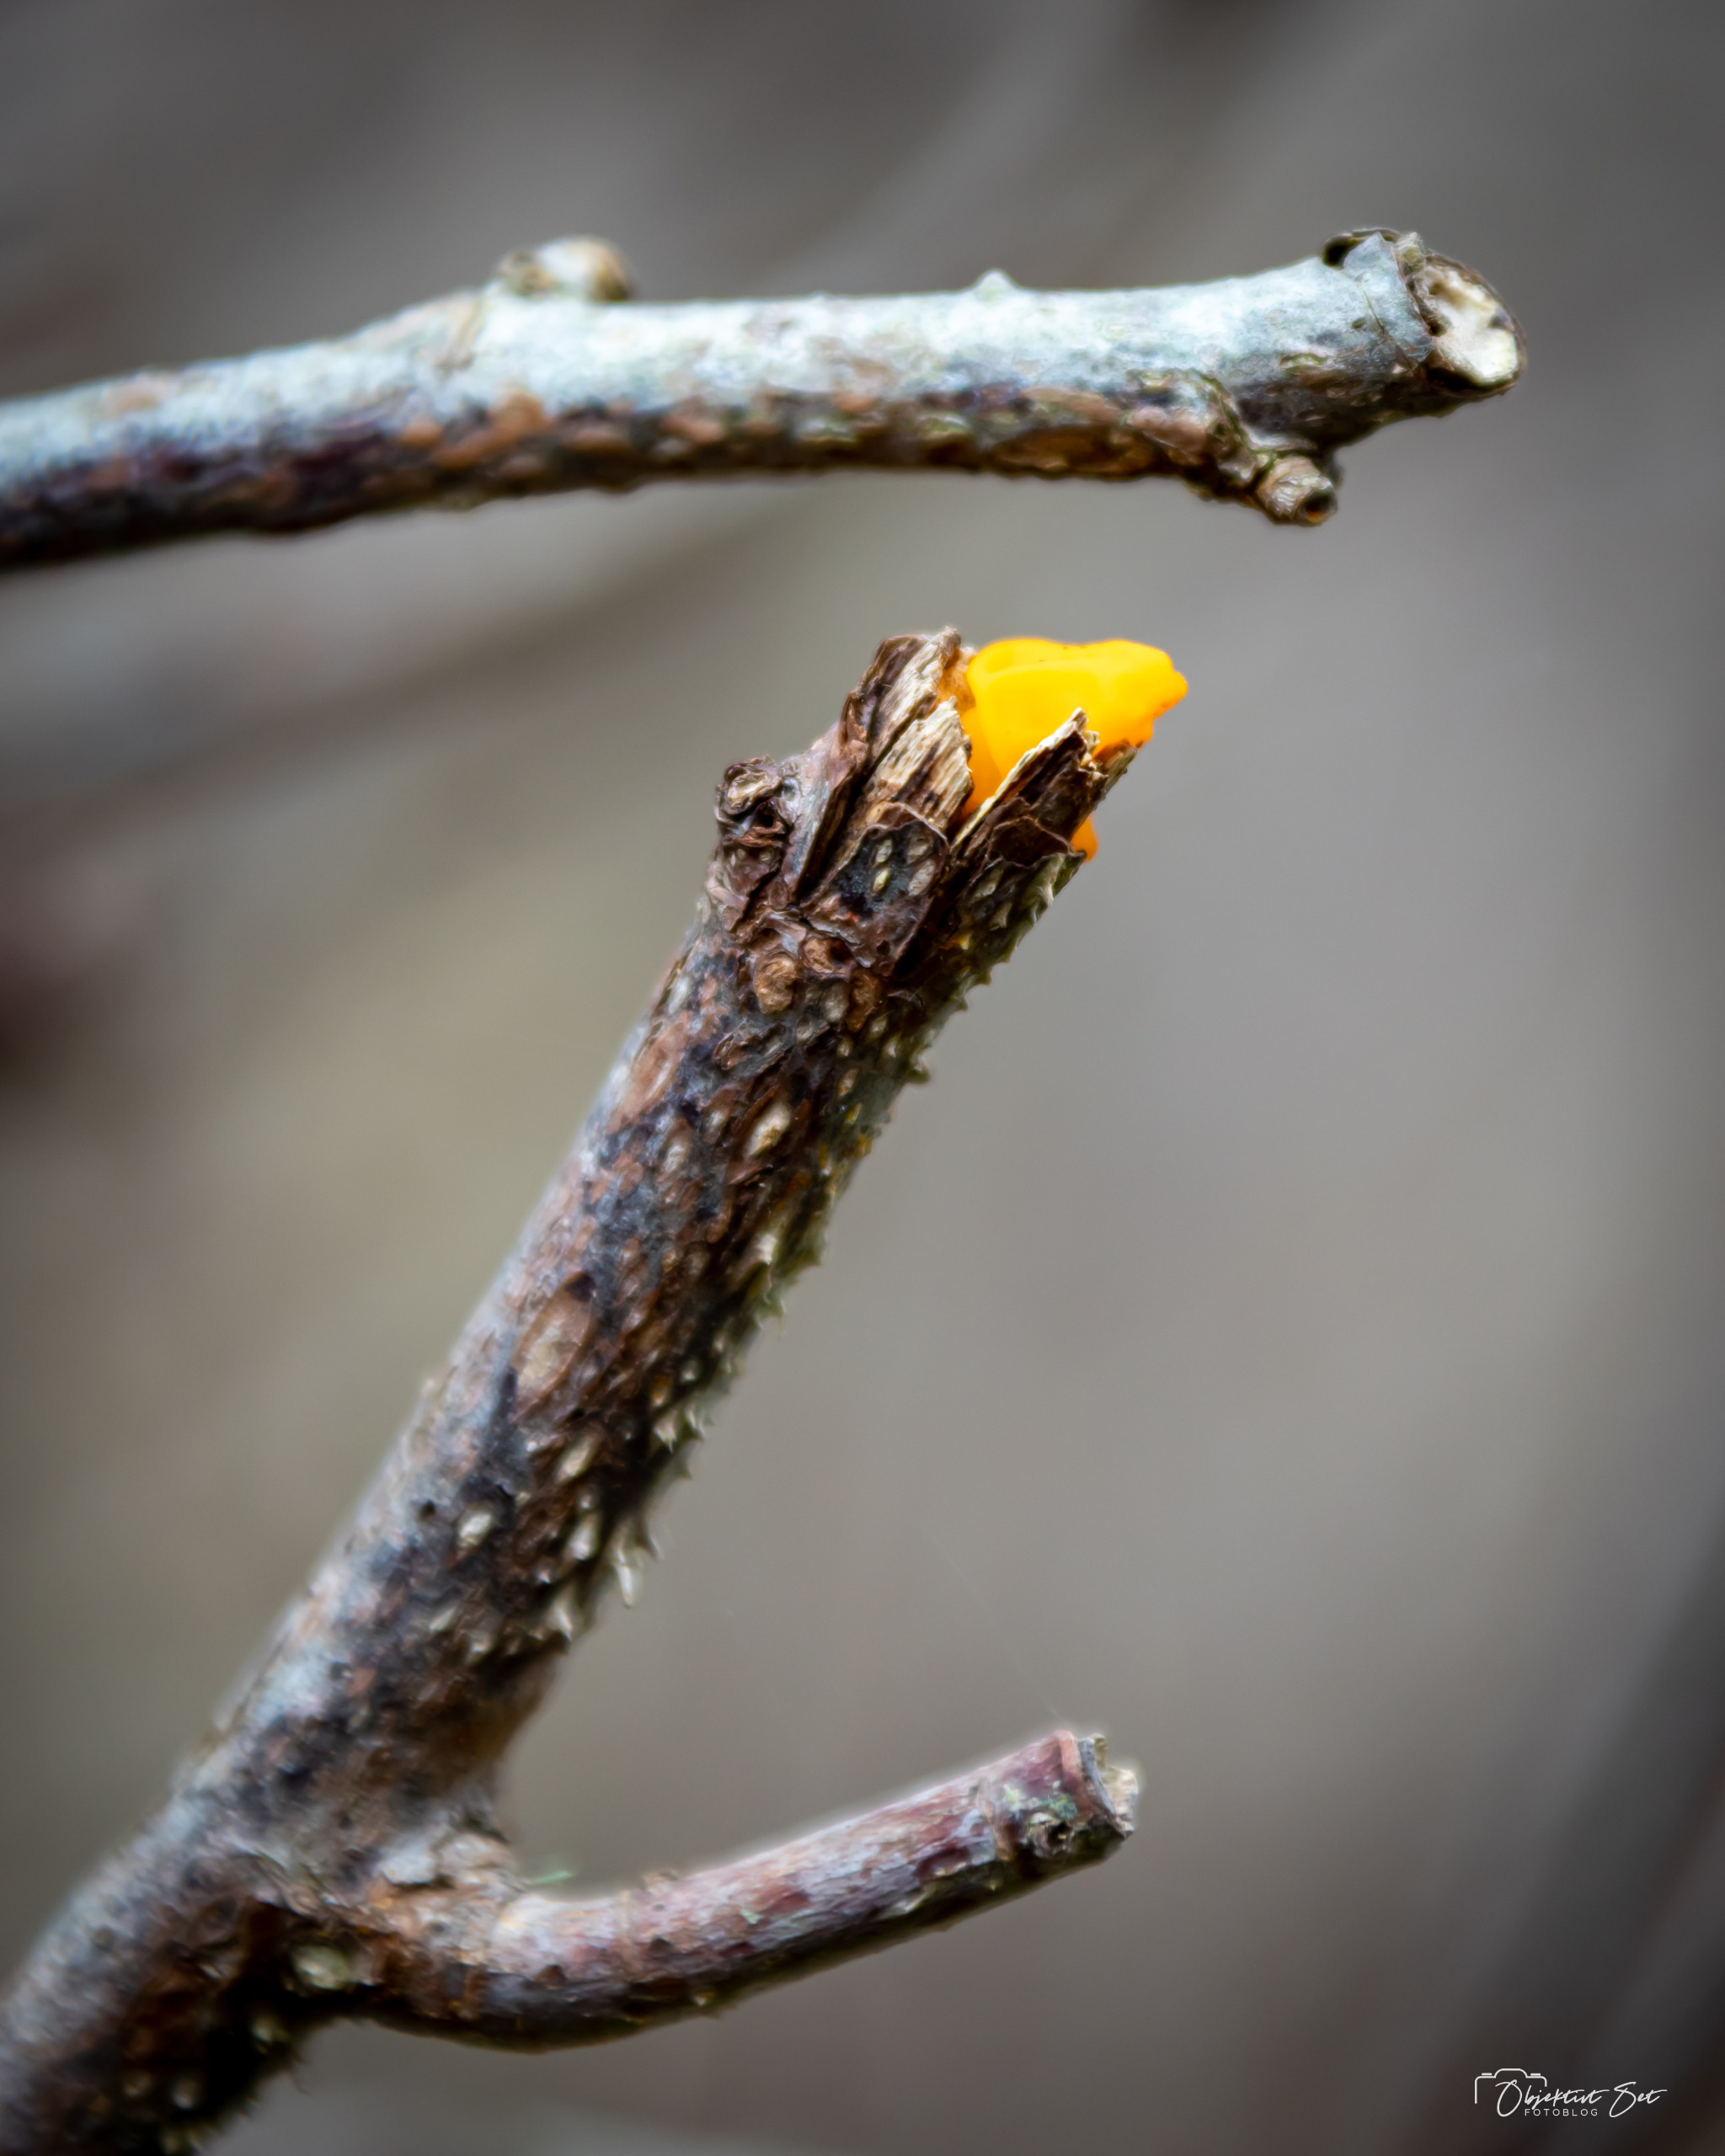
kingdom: Fungi
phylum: Basidiomycota
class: Tremellomycetes
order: Tremellales
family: Tremellaceae
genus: Tremella
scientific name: Tremella mesenterica
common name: Gul bævresvamp
